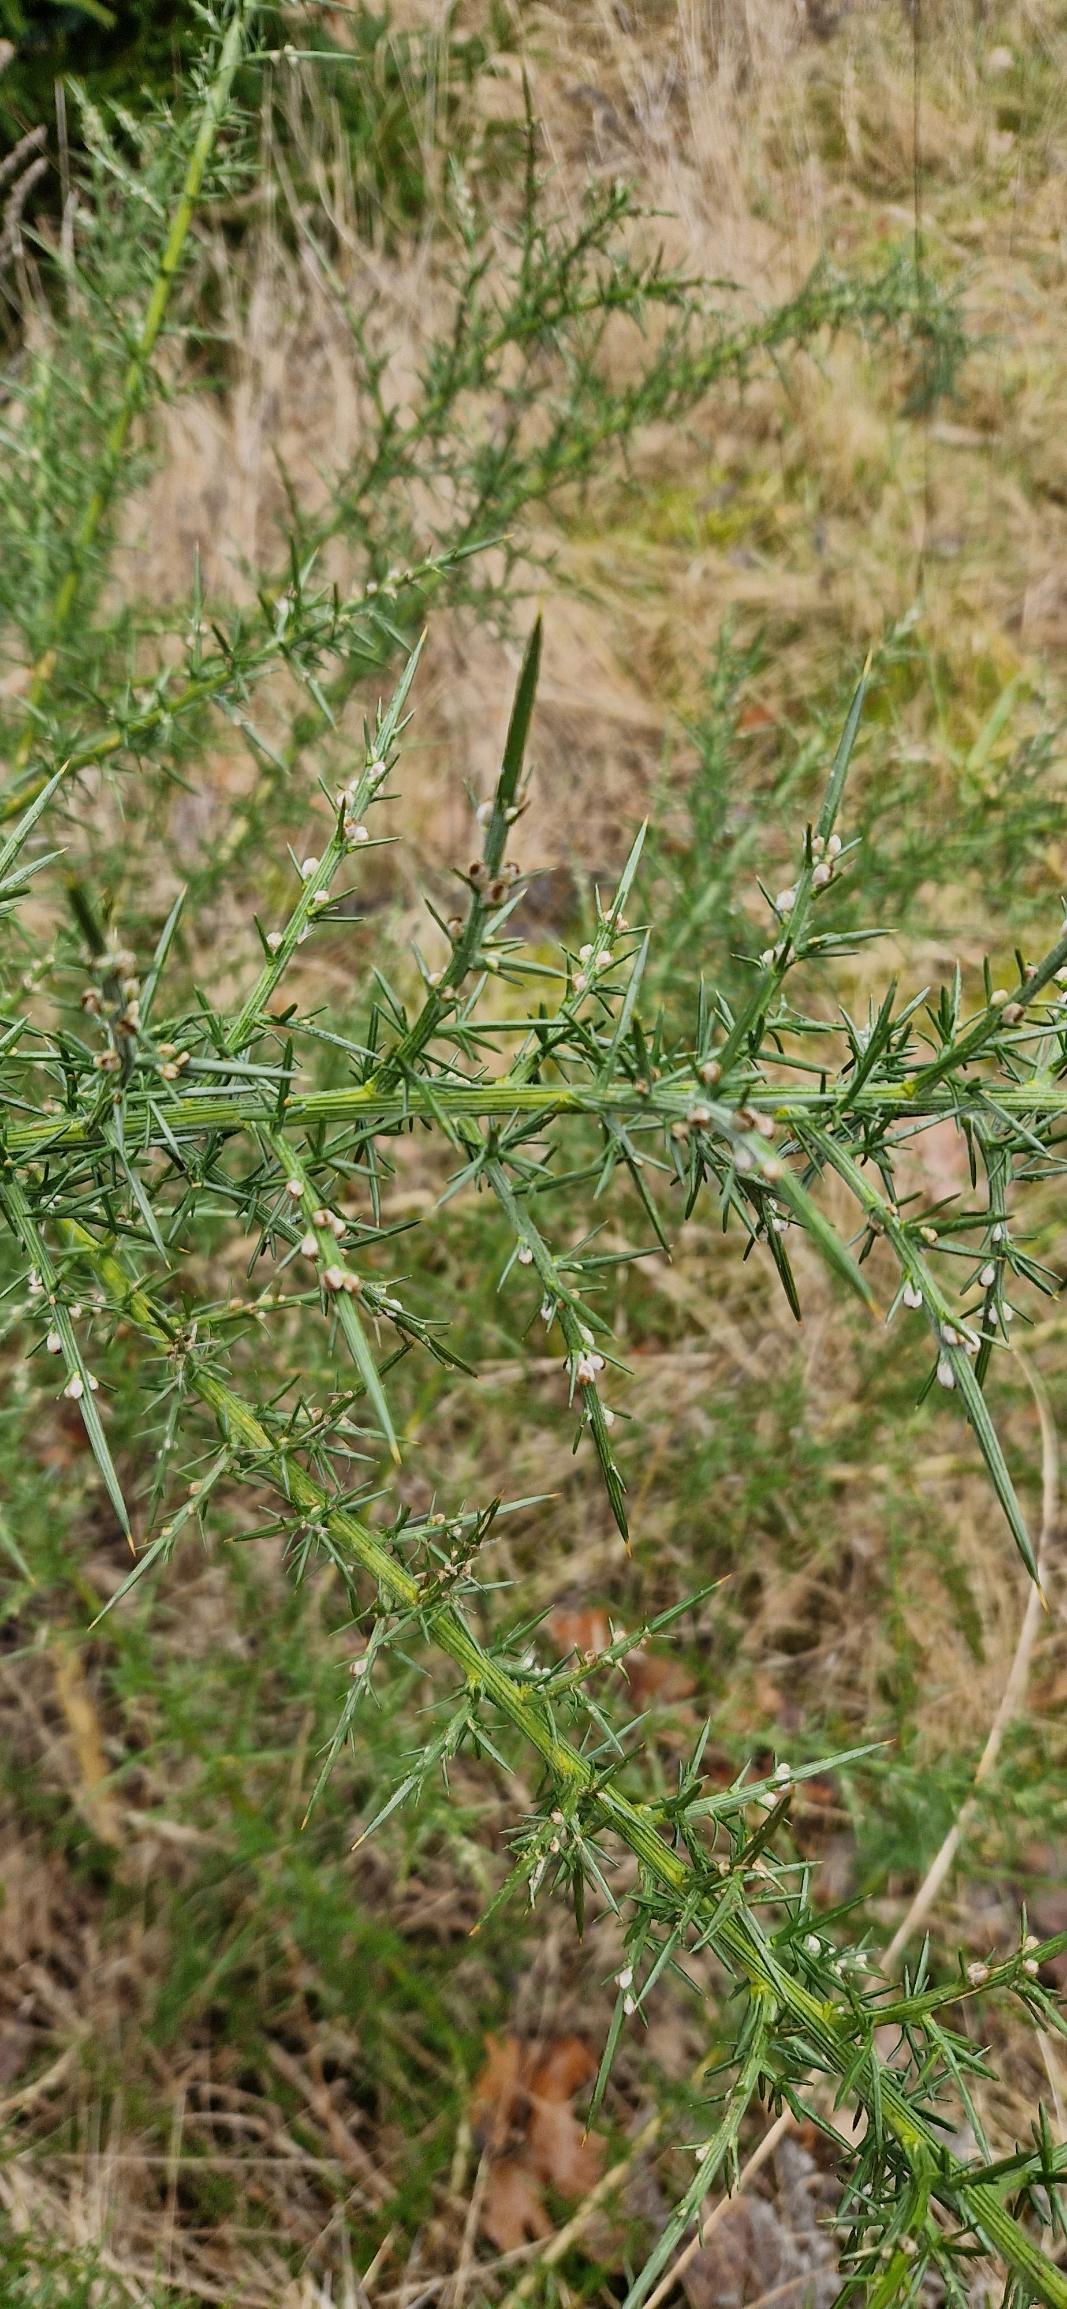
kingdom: Plantae
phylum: Tracheophyta
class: Magnoliopsida
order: Fabales
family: Fabaceae
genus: Ulex
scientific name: Ulex europaeus
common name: Tornblad
